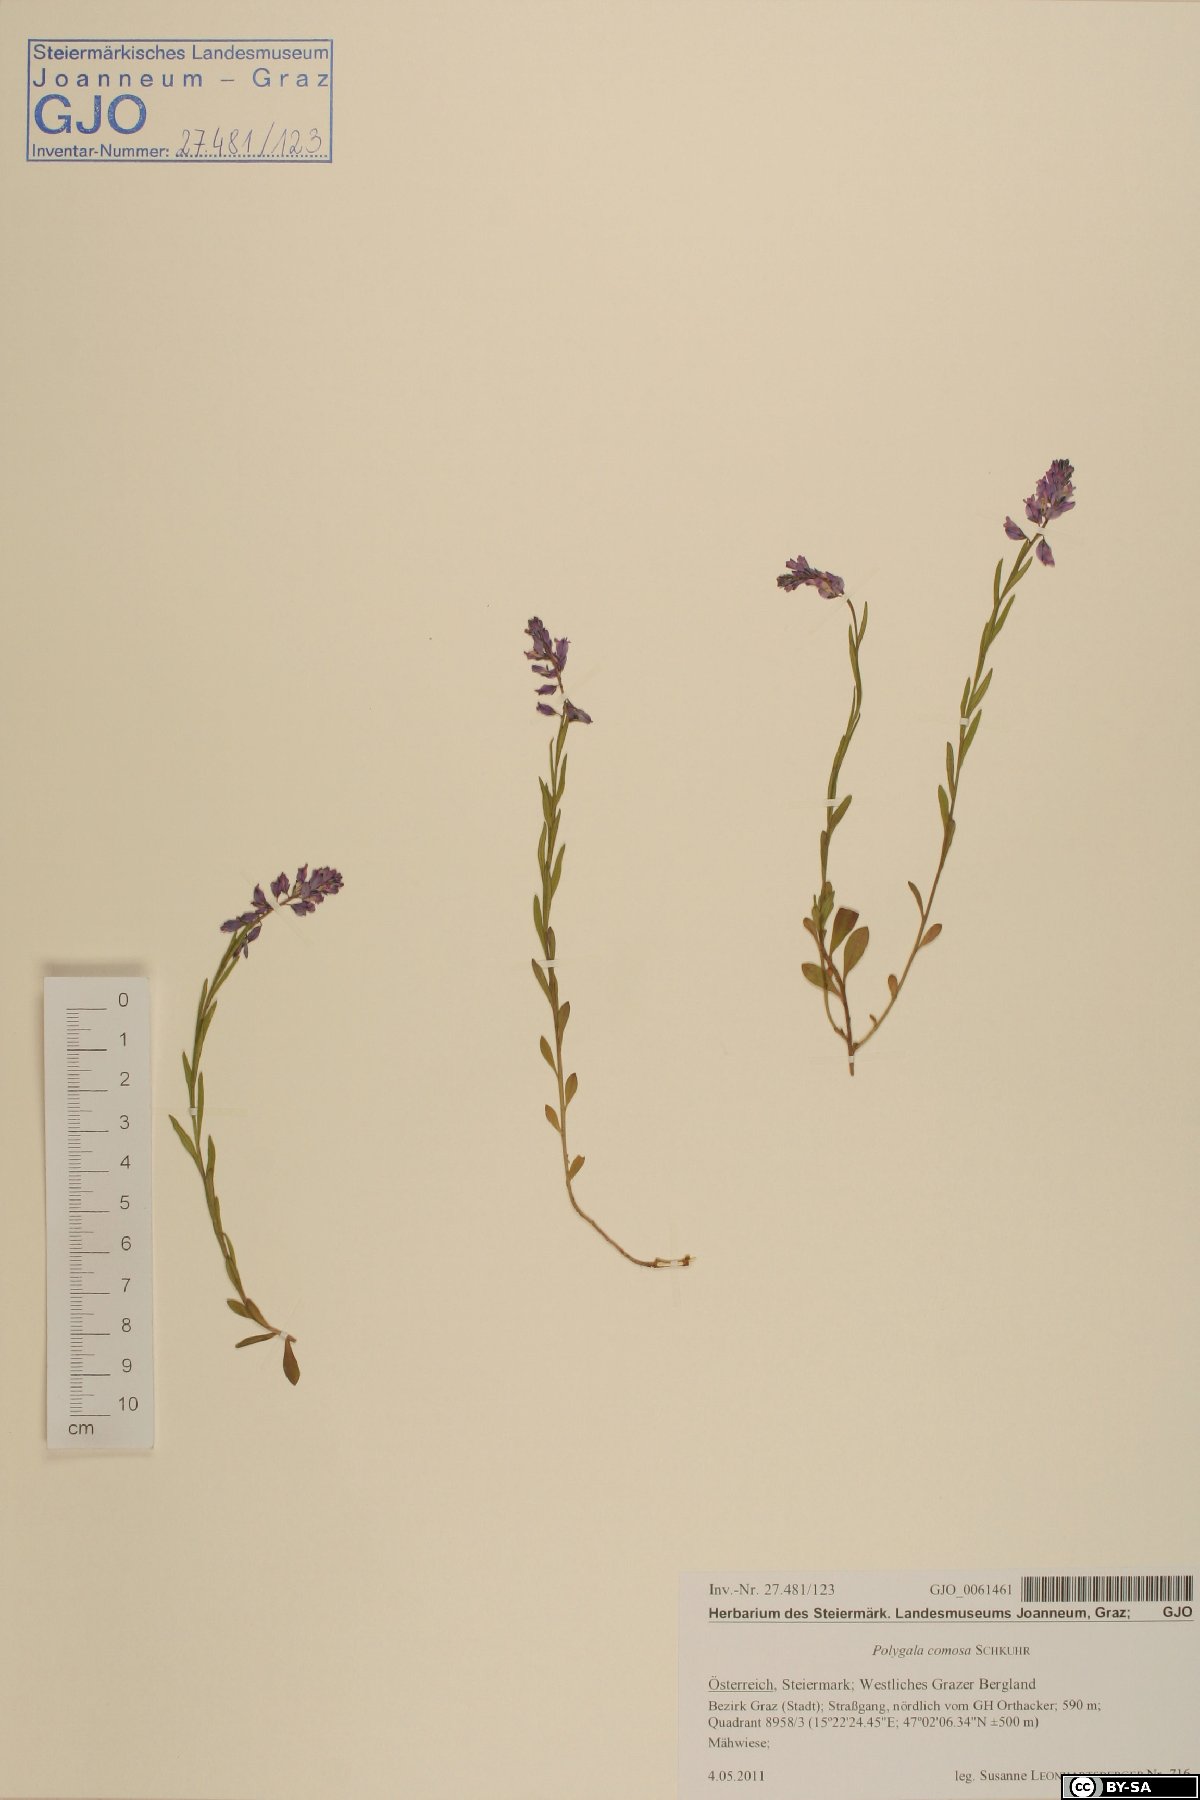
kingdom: Plantae
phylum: Tracheophyta
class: Magnoliopsida
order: Fabales
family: Polygalaceae
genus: Polygala
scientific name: Polygala comosa
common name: Tufted milkwort
